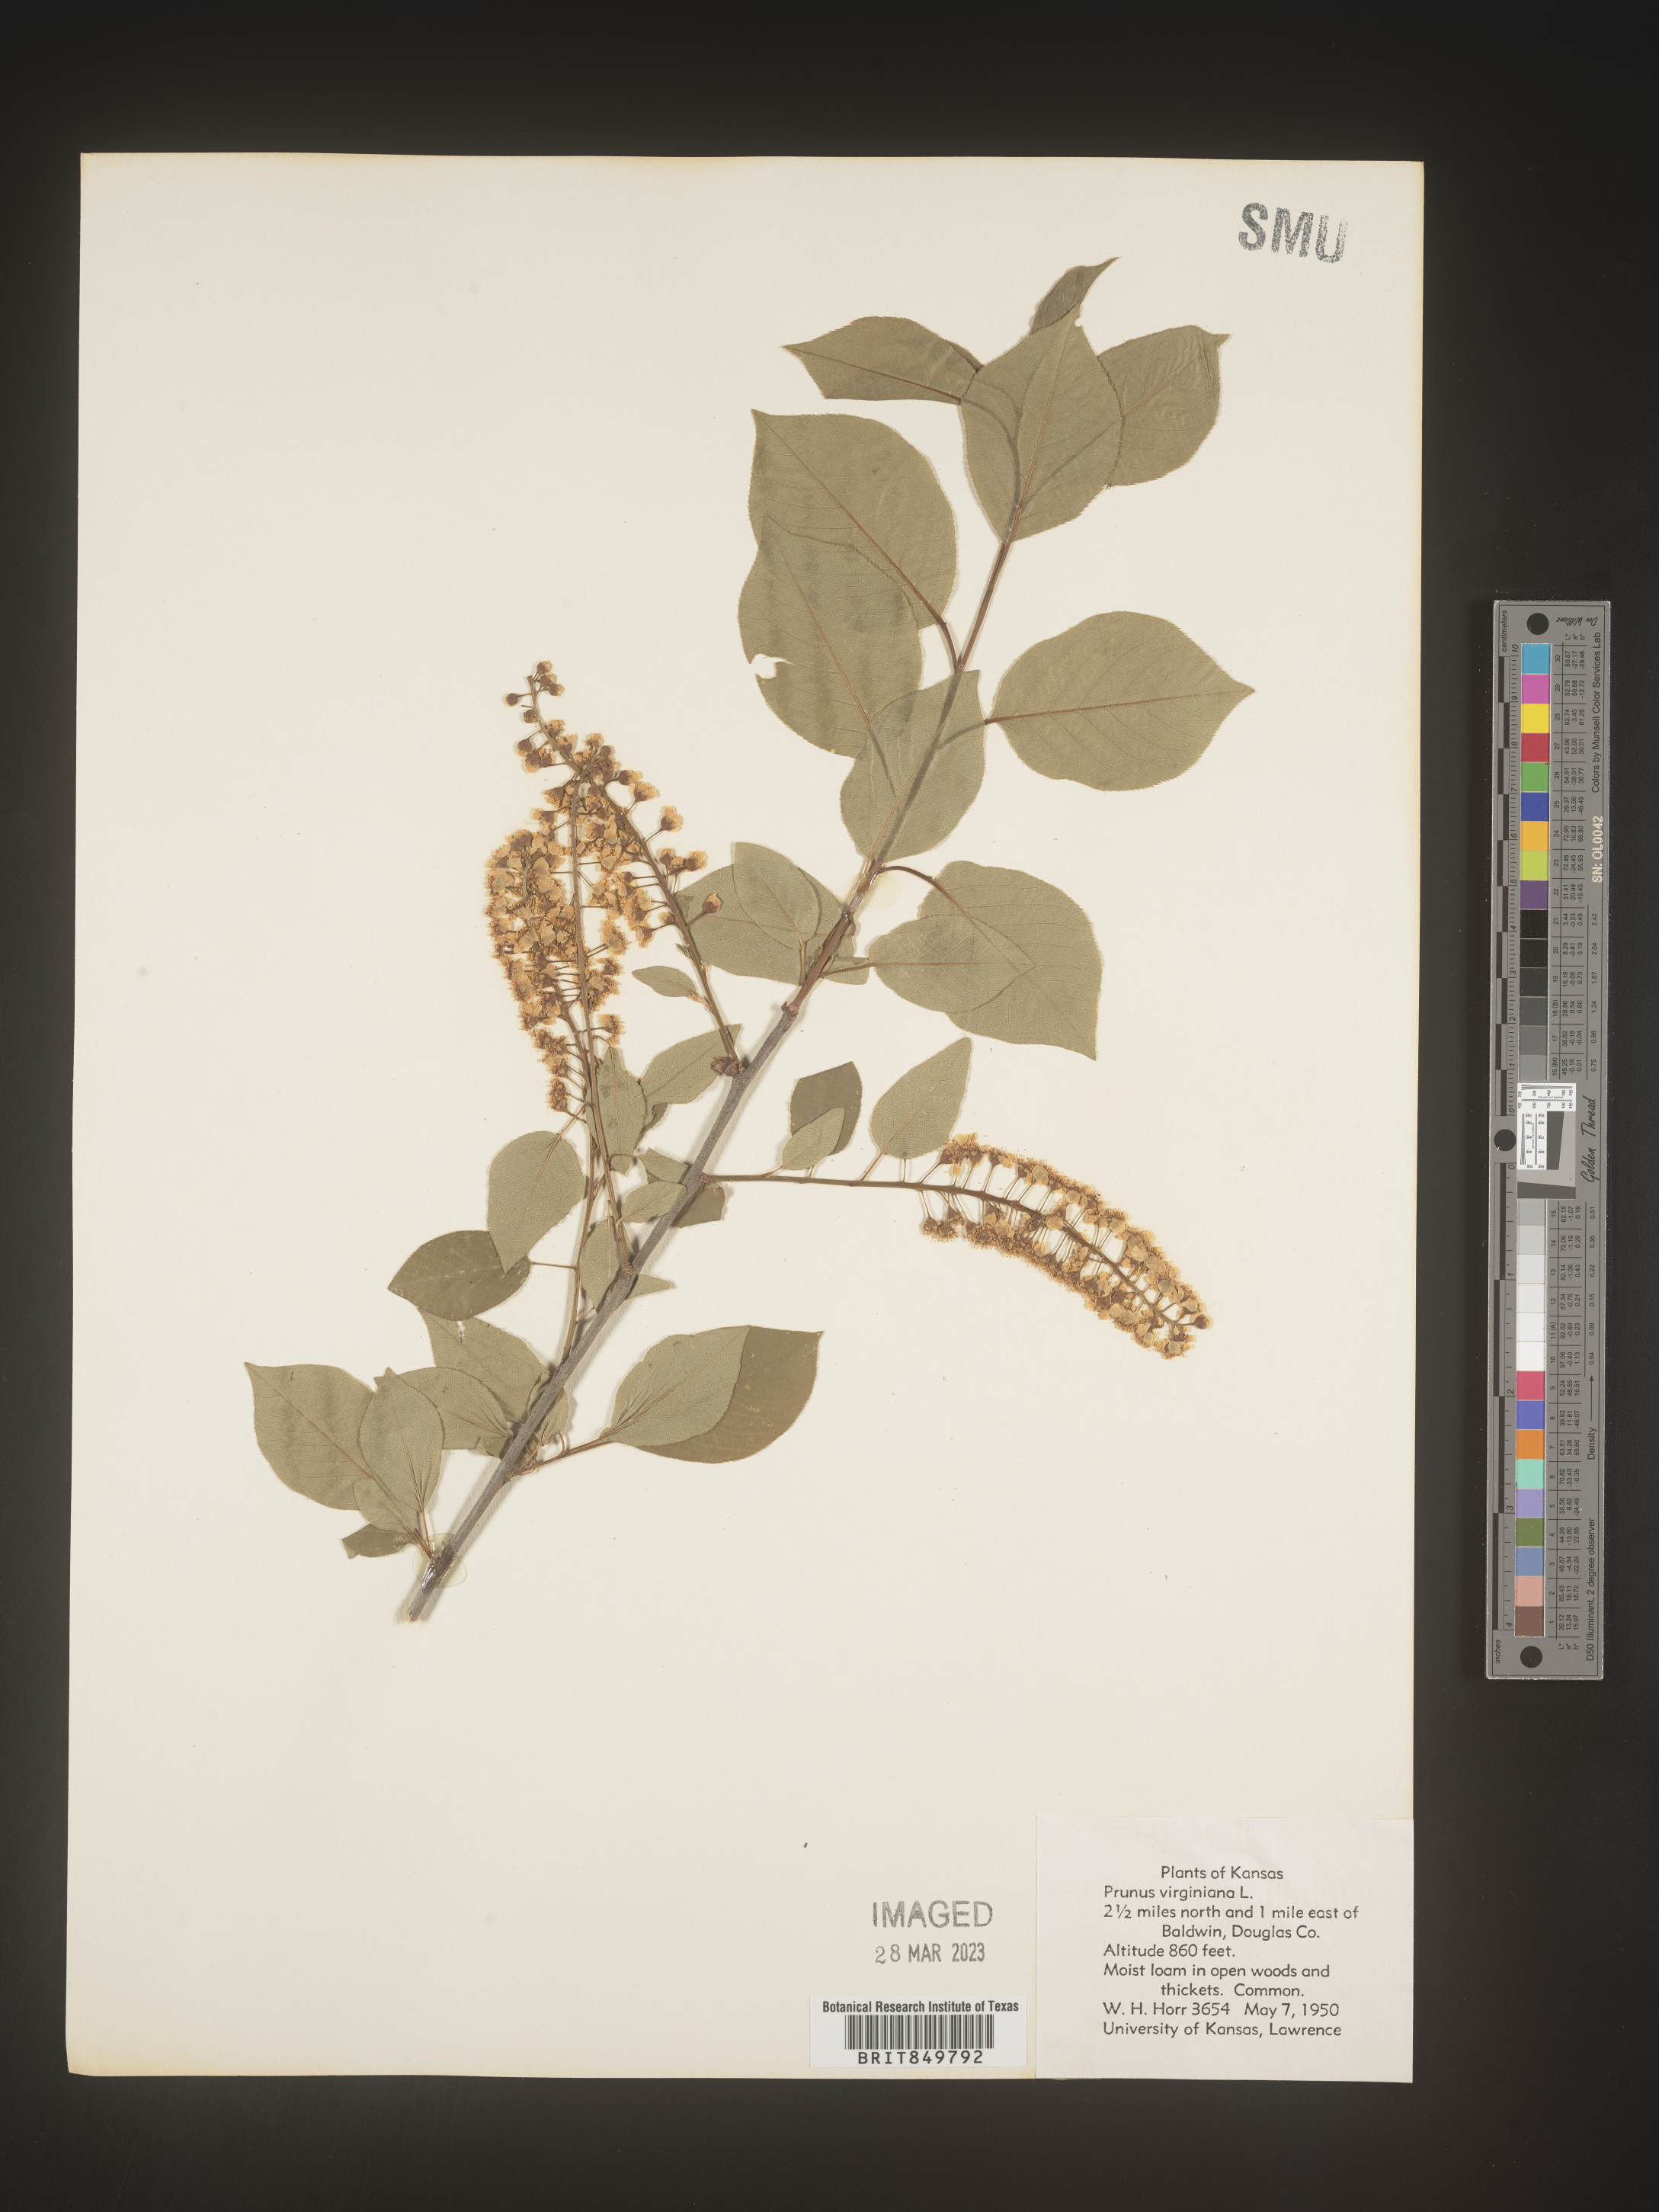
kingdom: Plantae
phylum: Tracheophyta
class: Magnoliopsida
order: Rosales
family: Rosaceae
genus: Prunus
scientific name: Prunus virginiana
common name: Chokecherry
